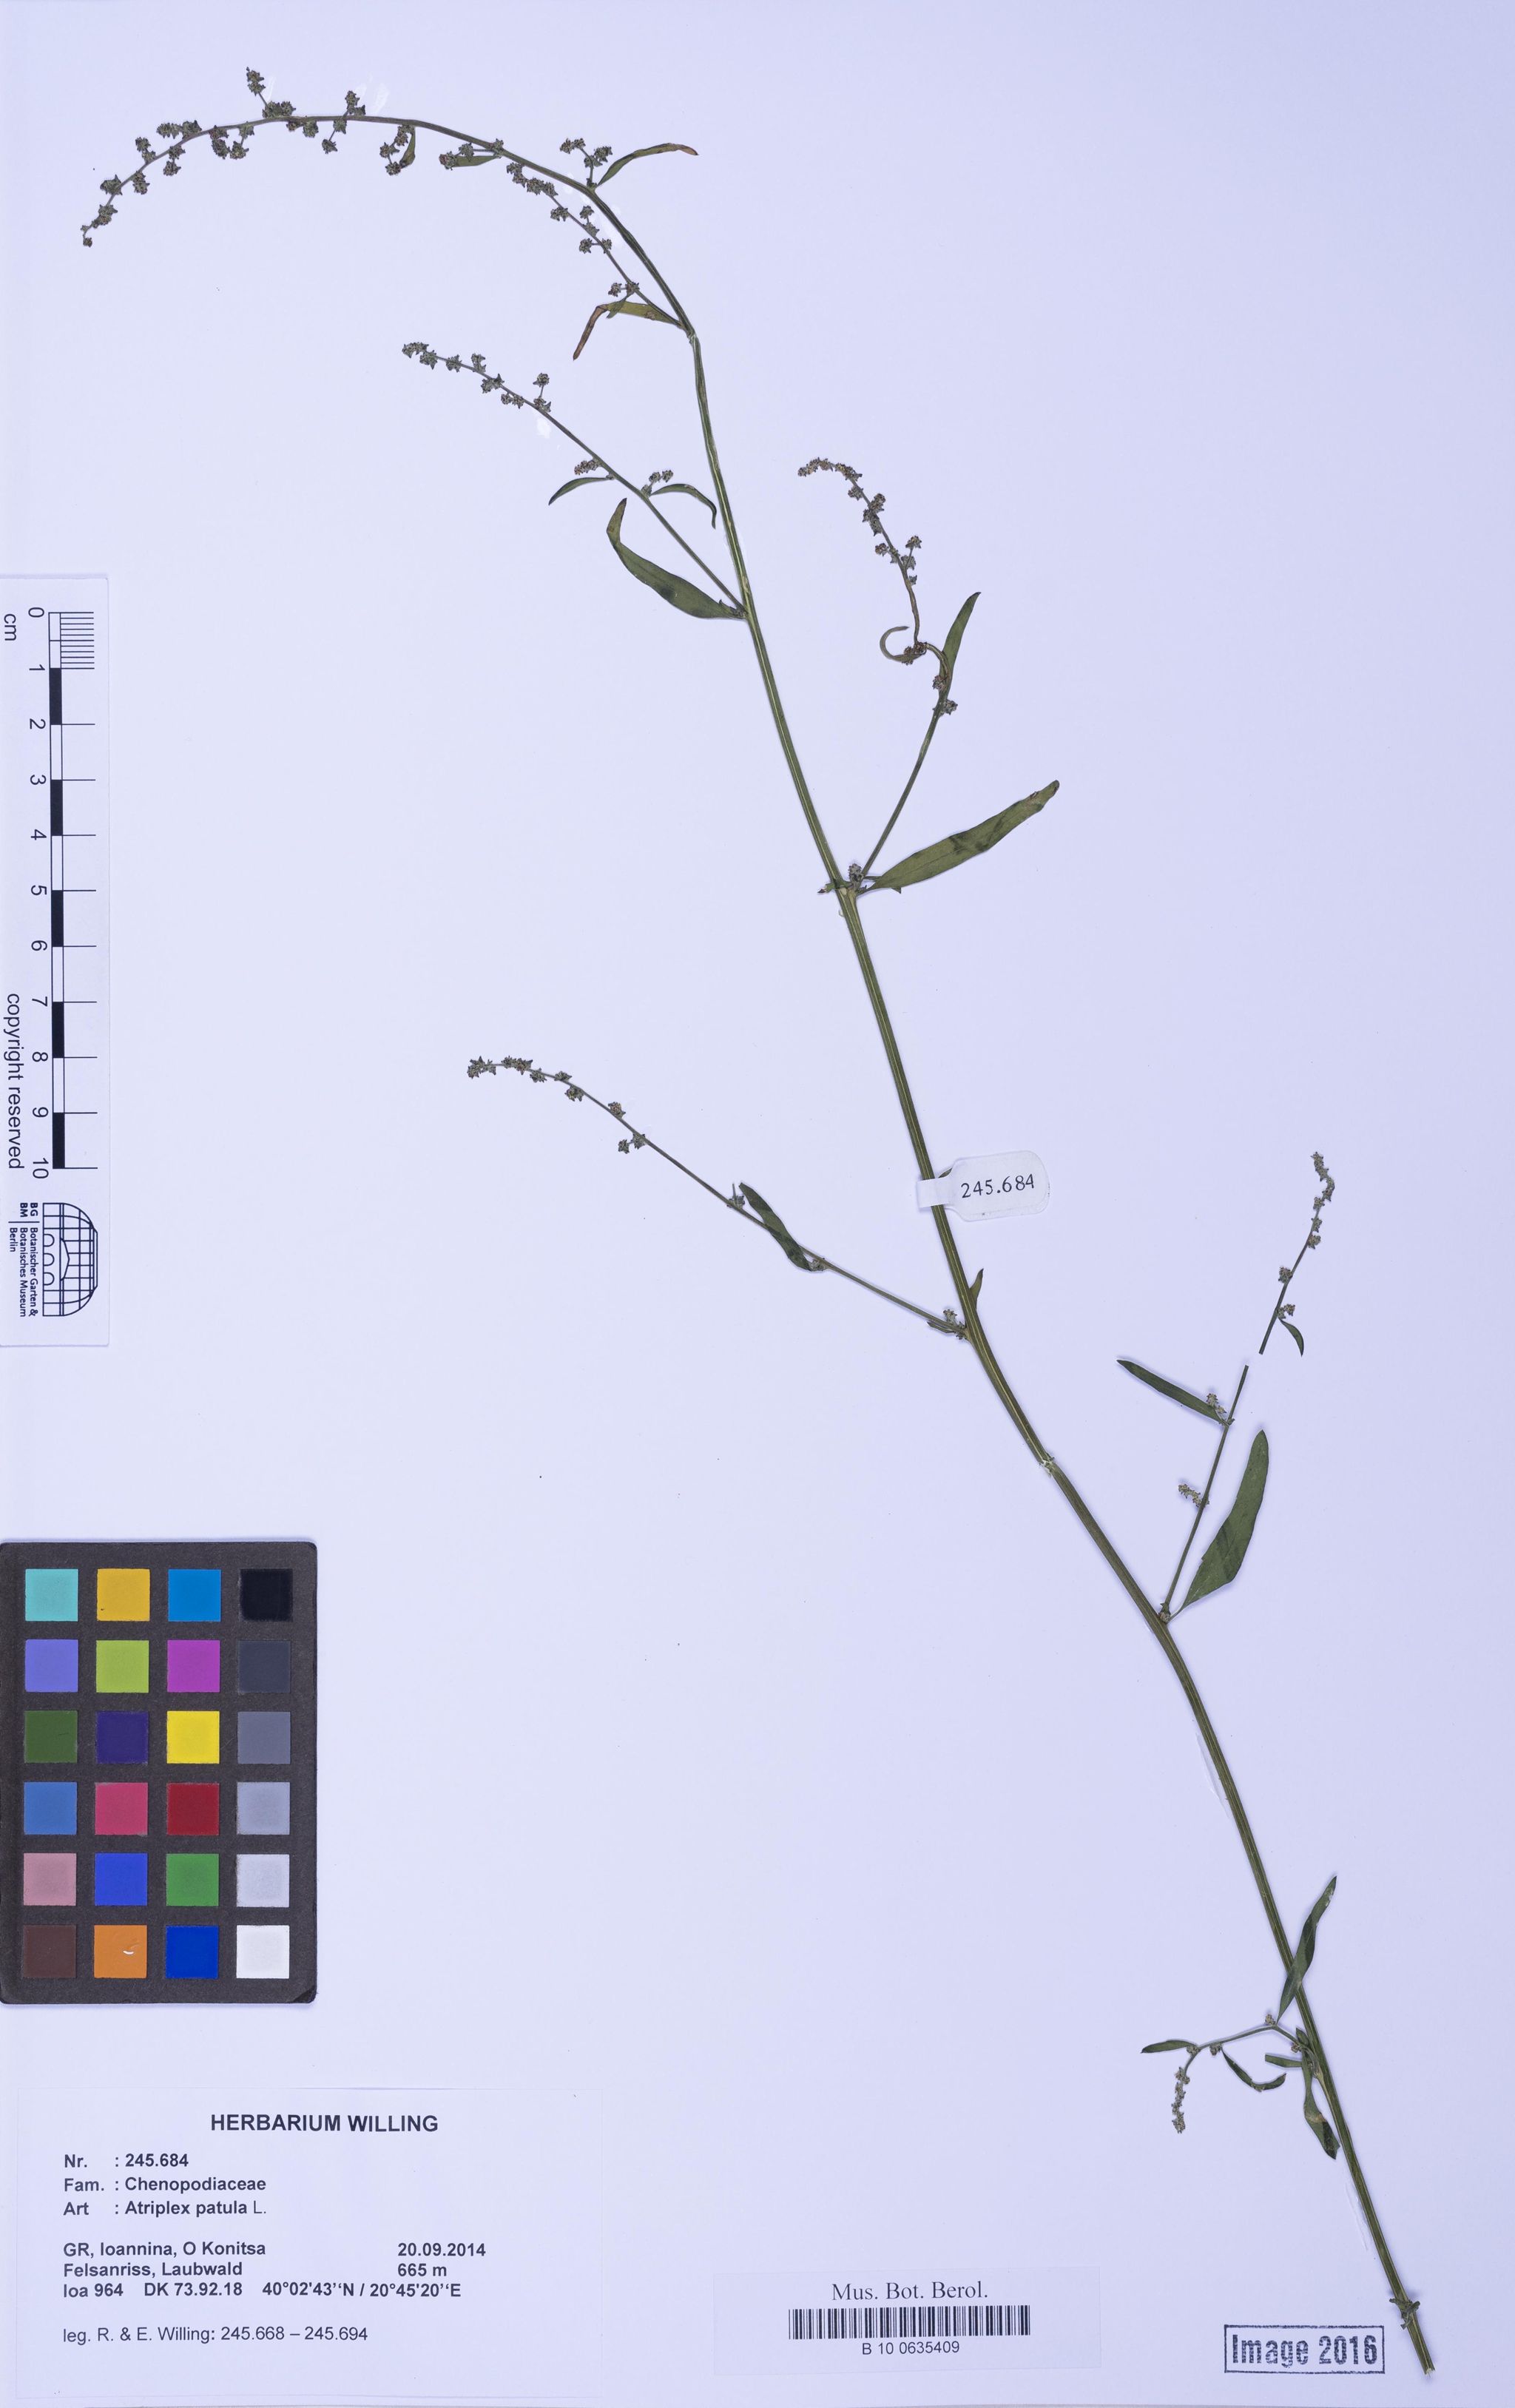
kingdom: Plantae
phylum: Tracheophyta
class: Magnoliopsida
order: Caryophyllales
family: Amaranthaceae
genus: Atriplex
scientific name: Atriplex patula
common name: Common orache
